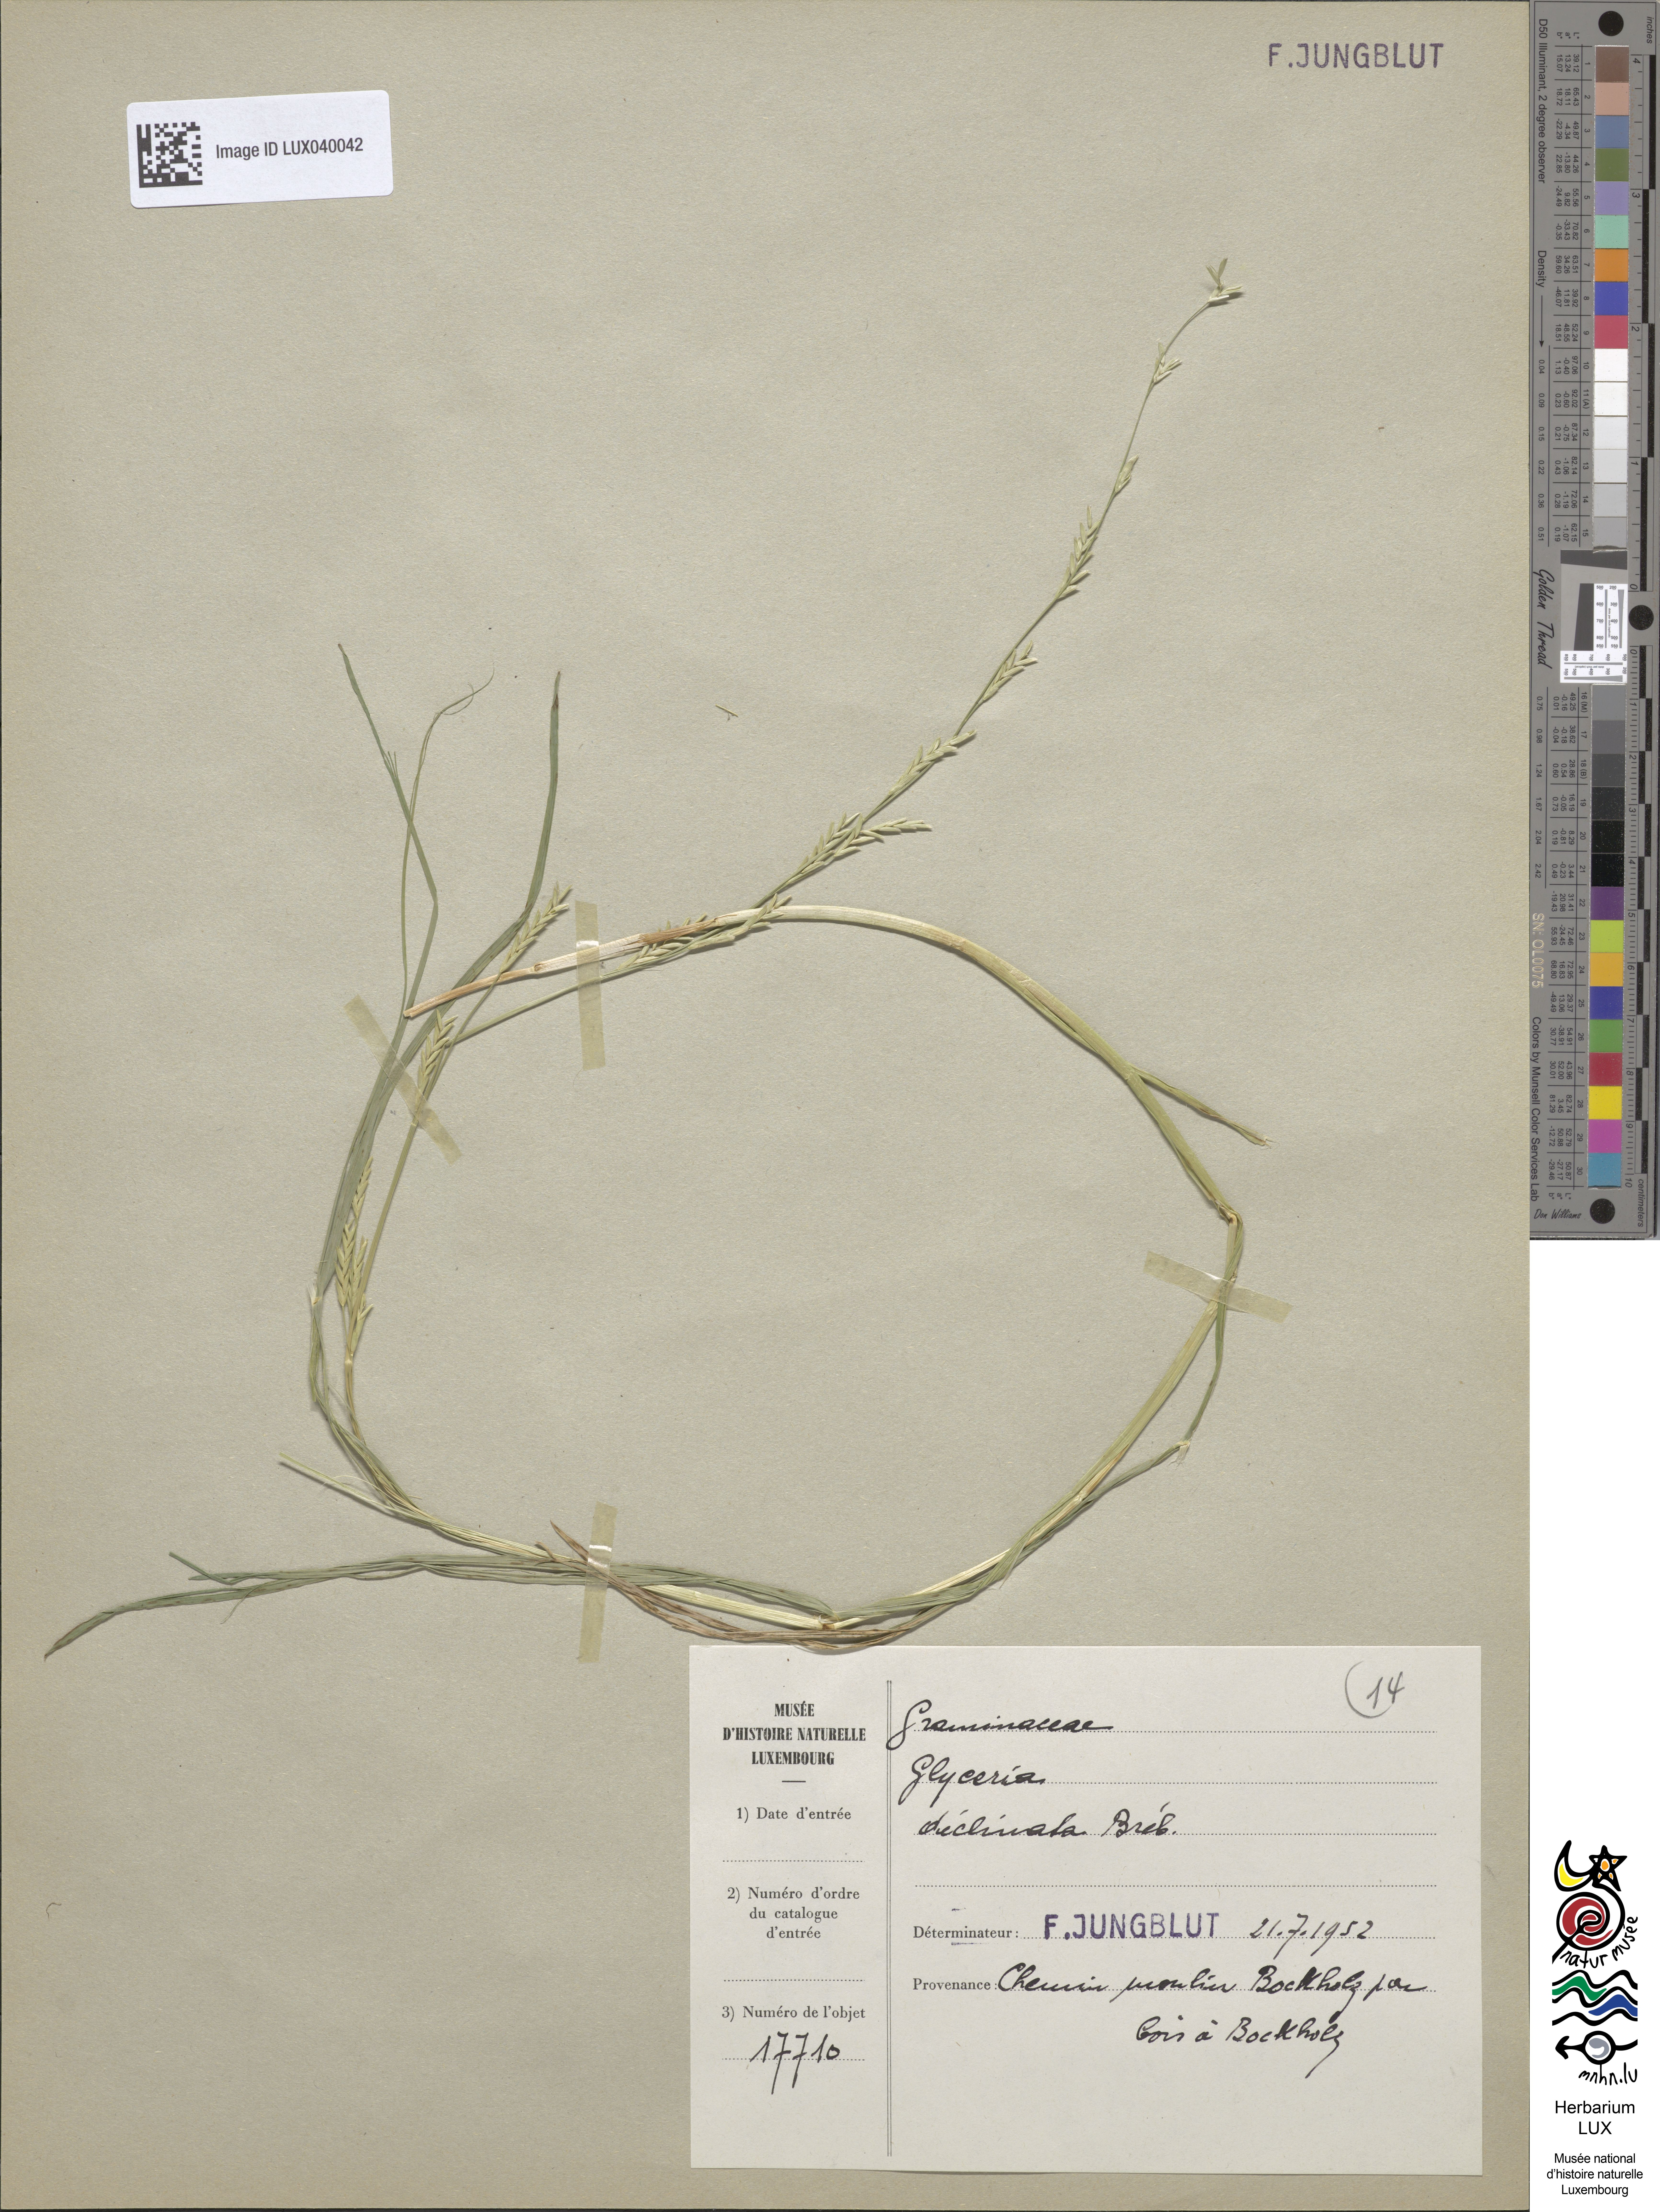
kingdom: Plantae
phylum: Tracheophyta
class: Liliopsida
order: Poales
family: Poaceae
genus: Glyceria
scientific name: Glyceria declinata
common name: Small sweet-grass
